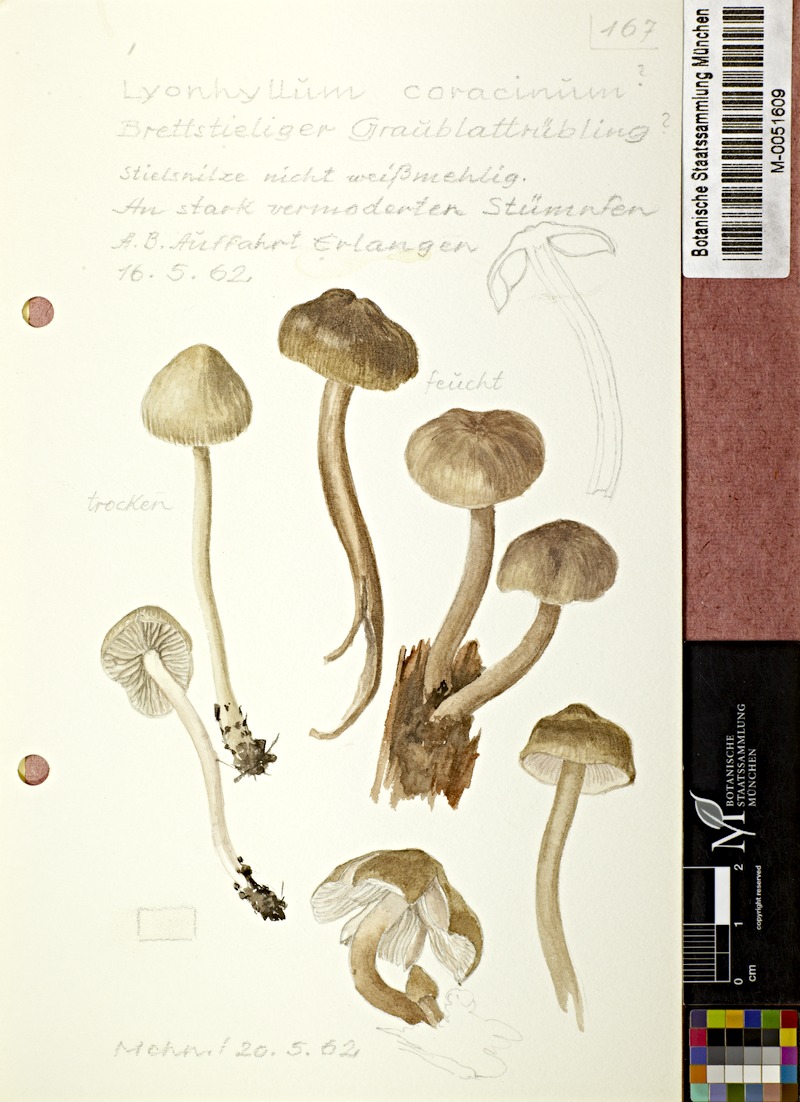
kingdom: Fungi
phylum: Basidiomycota
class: Agaricomycetes
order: Agaricales
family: Lyophyllaceae
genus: Tephrocybe
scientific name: Tephrocybe coracina
